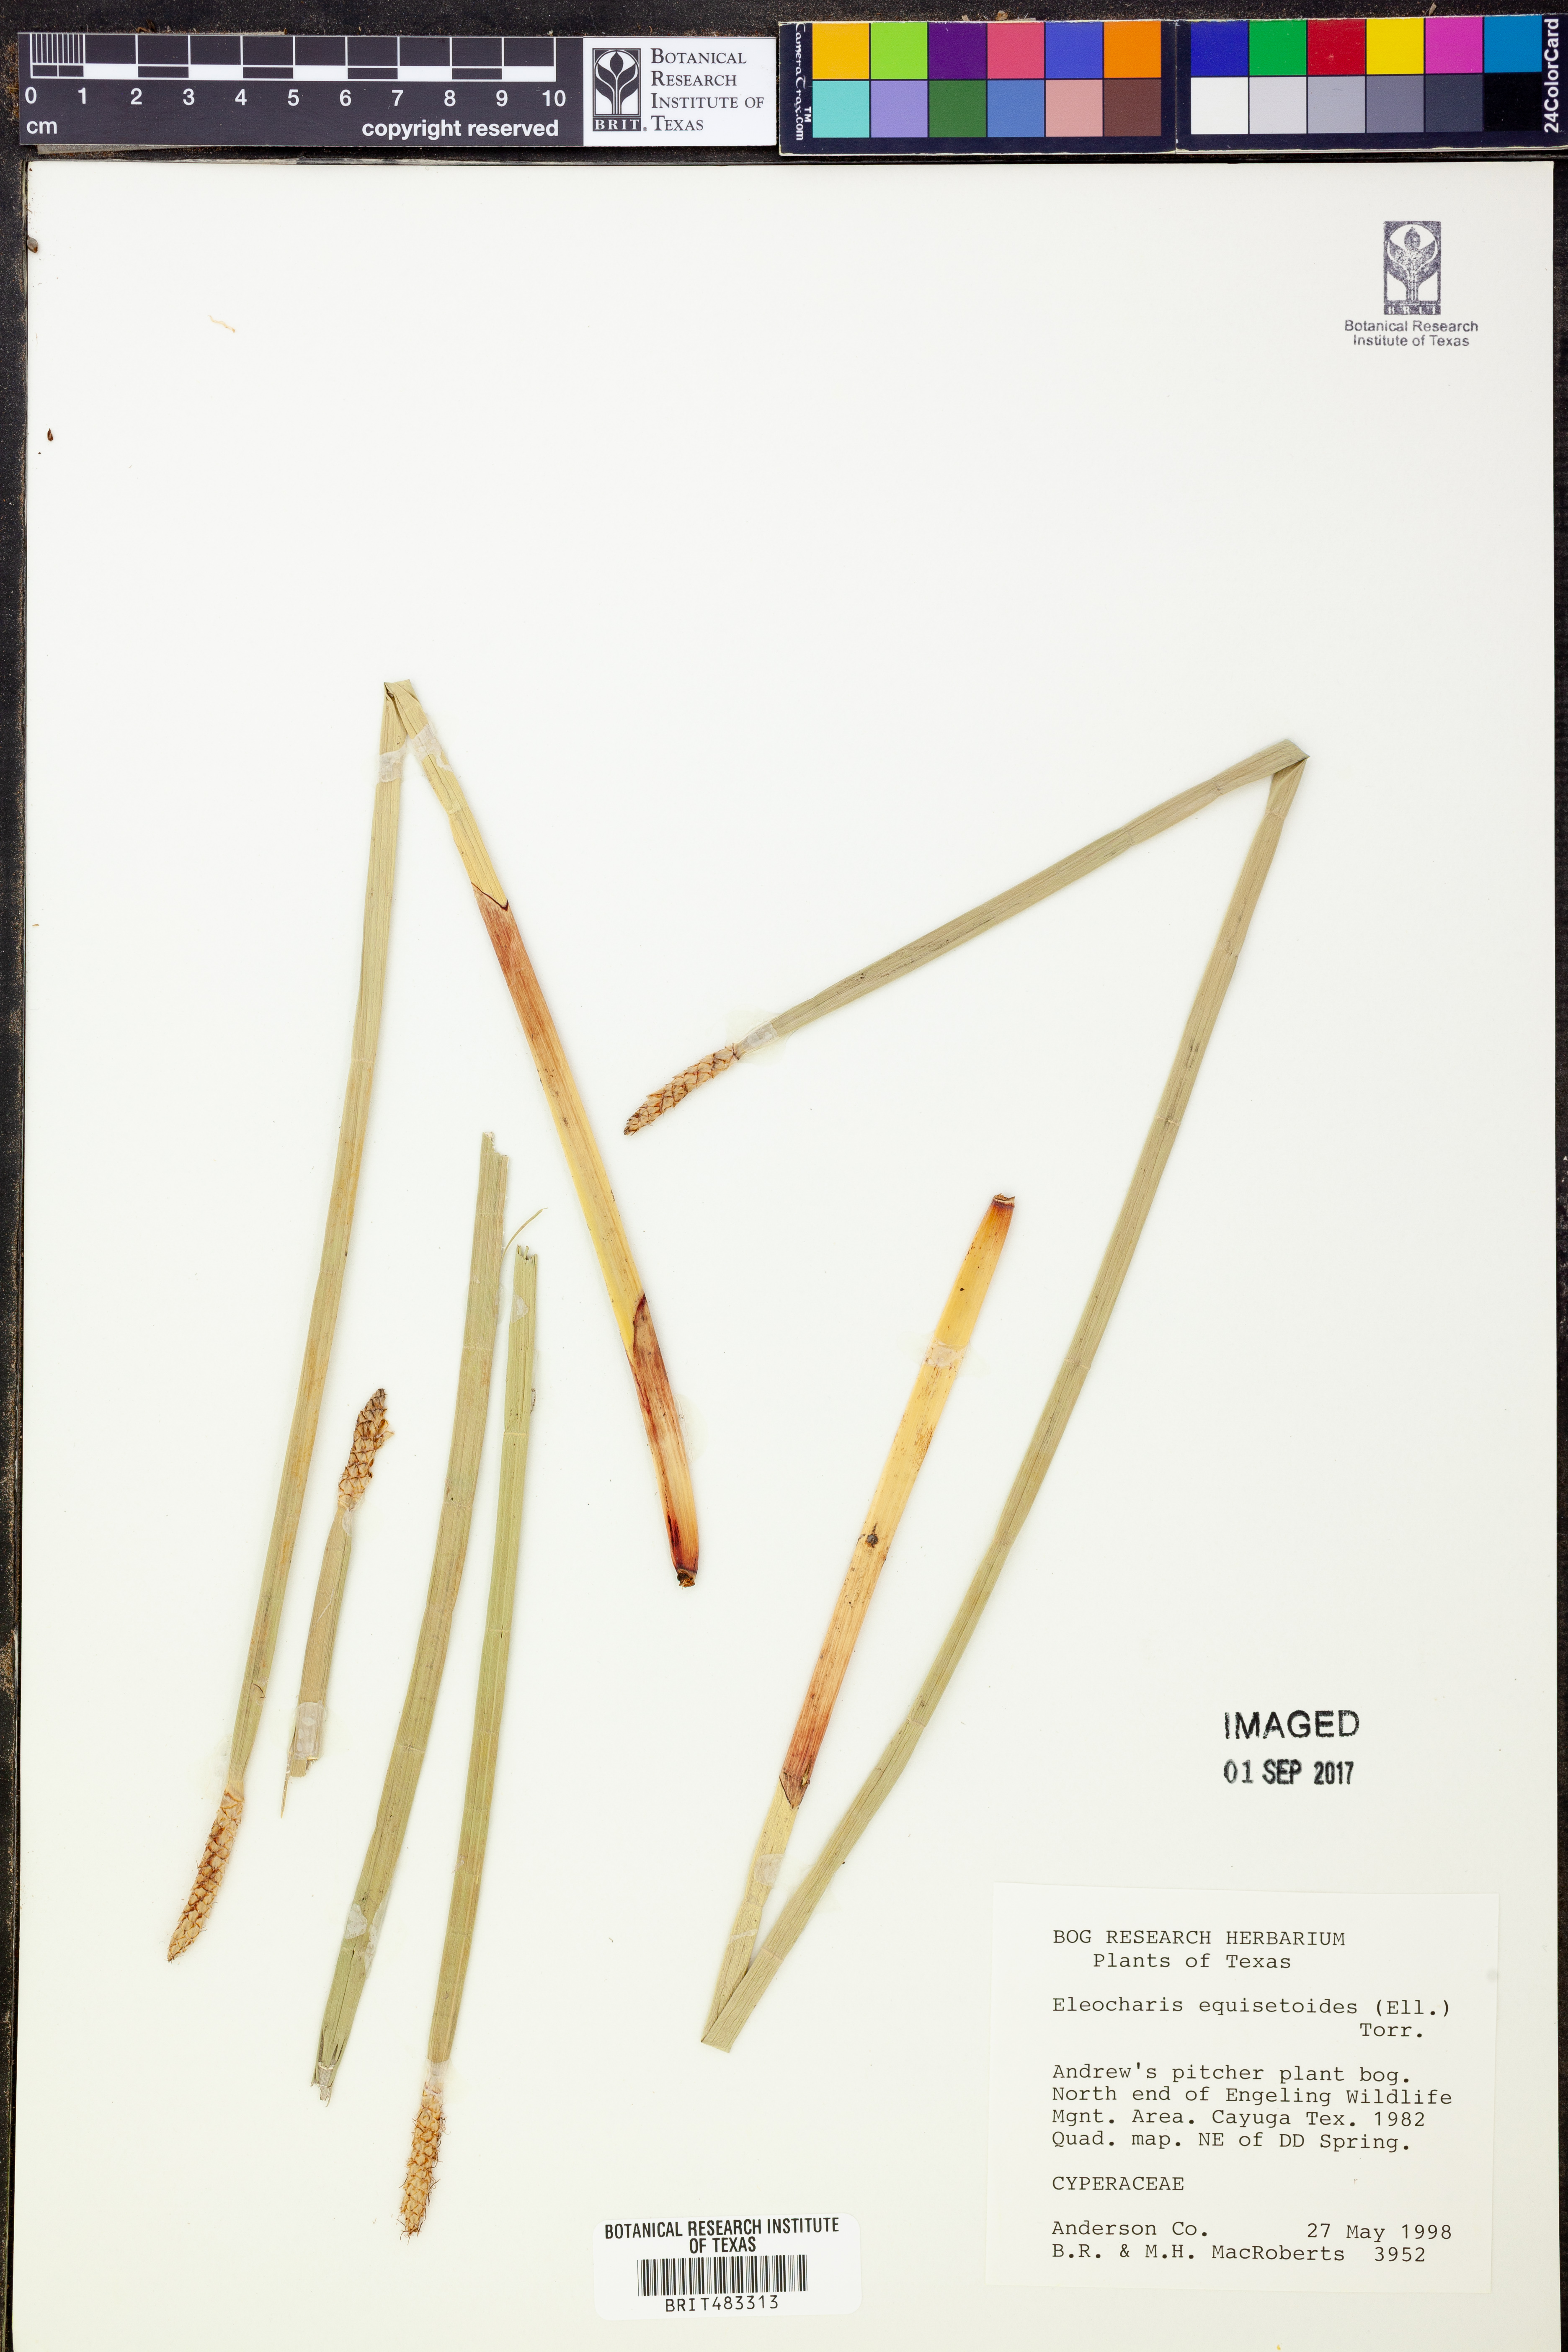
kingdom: Plantae
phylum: Tracheophyta
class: Liliopsida
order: Poales
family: Cyperaceae
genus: Eleocharis
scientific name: Eleocharis equisetoides
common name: Horsetail spike-rush
